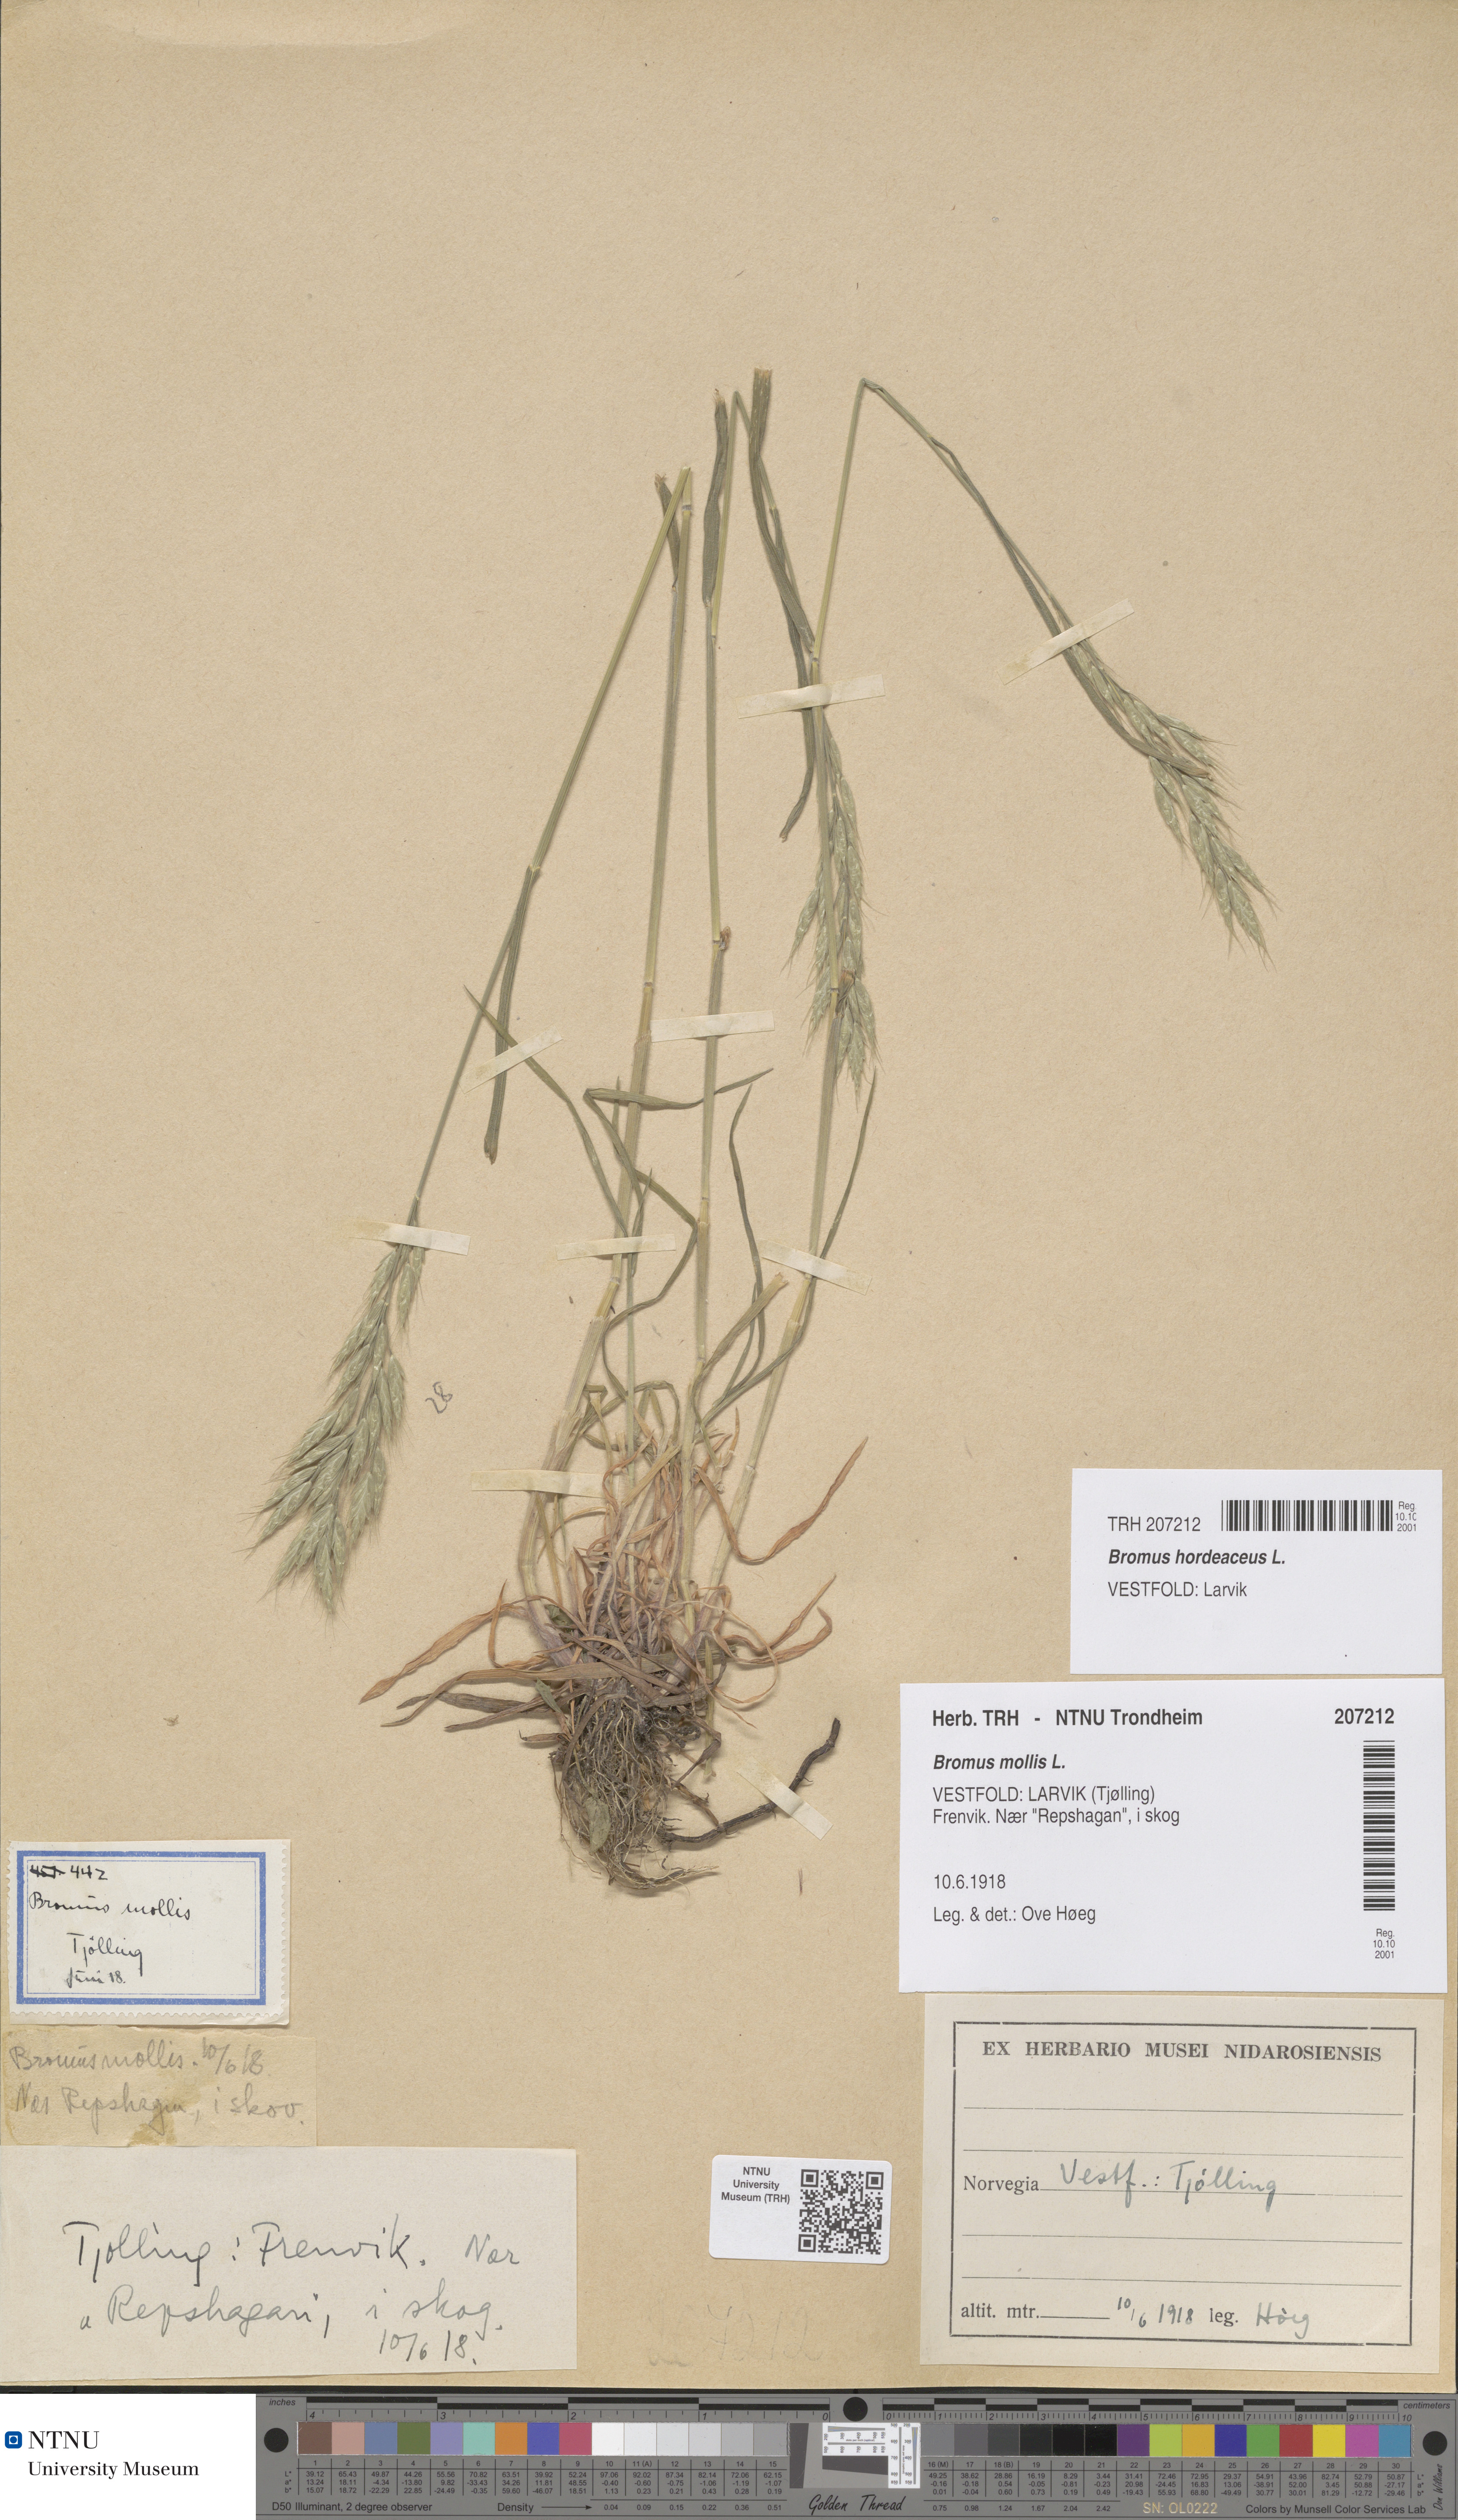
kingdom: Plantae
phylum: Tracheophyta
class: Liliopsida
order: Poales
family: Poaceae
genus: Bromus
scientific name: Bromus hordeaceus
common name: Soft brome
